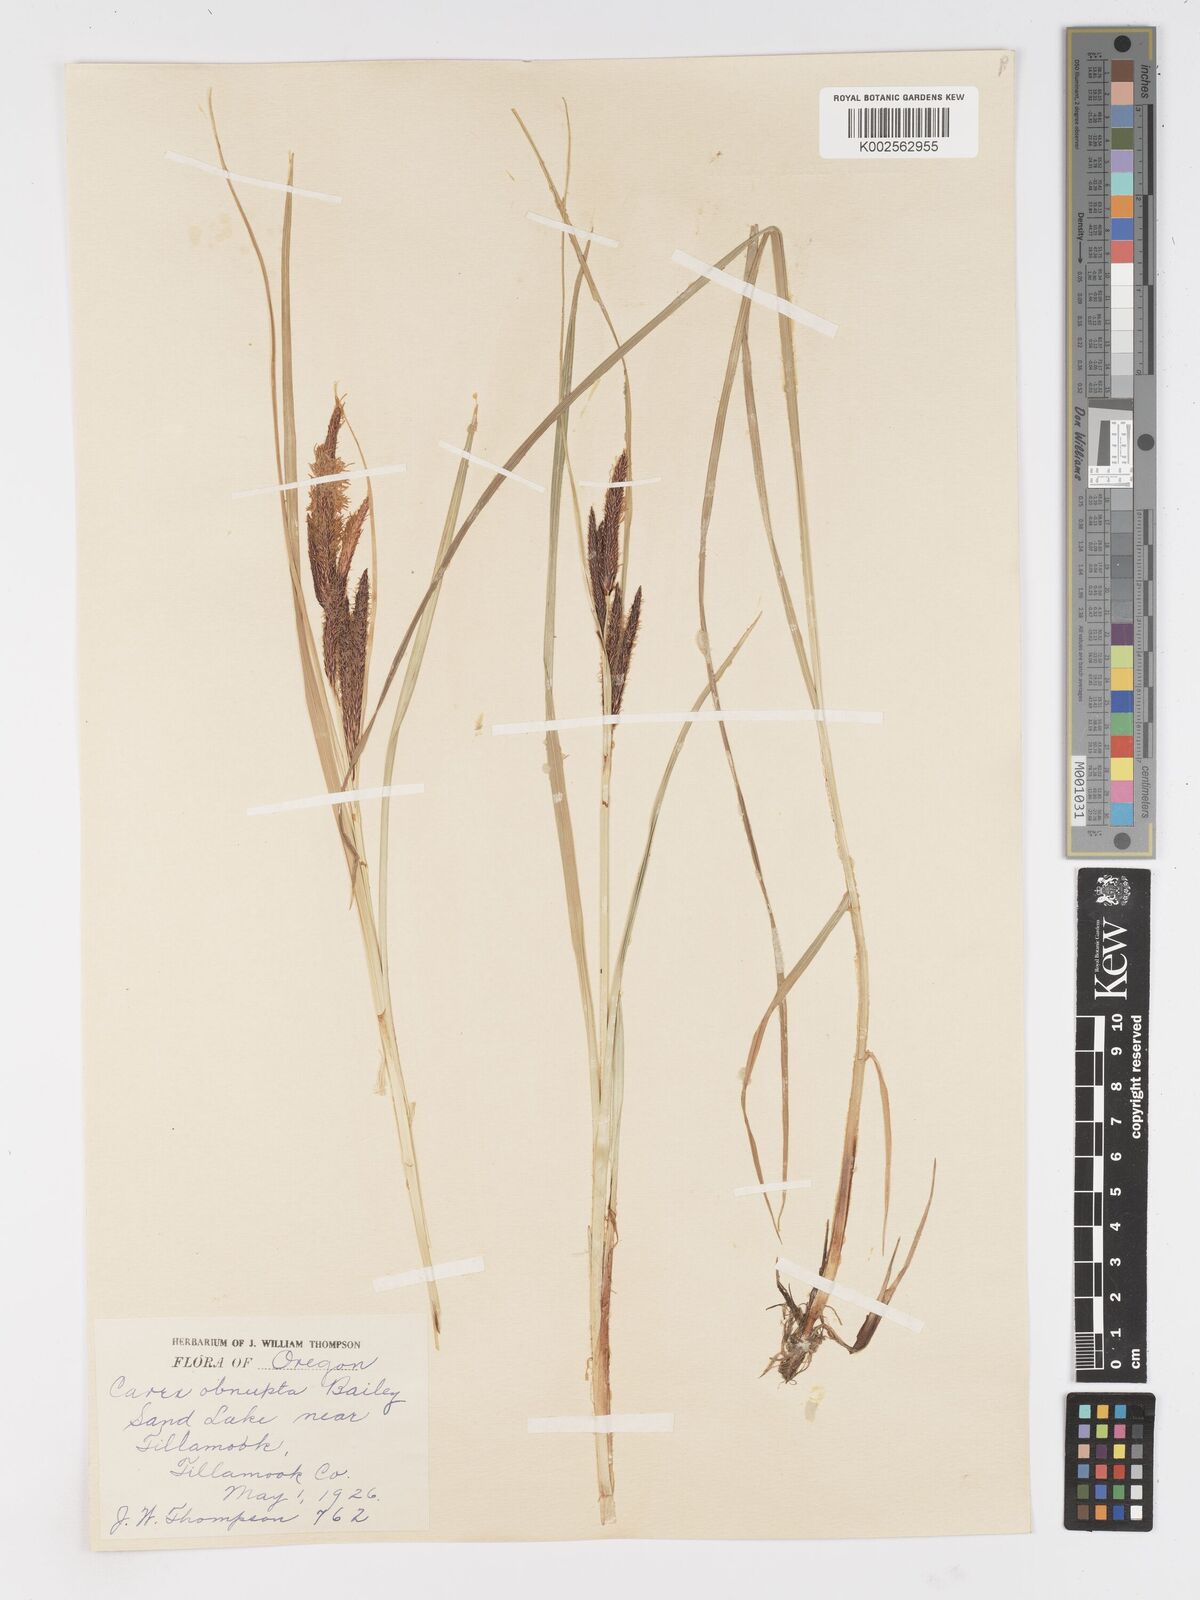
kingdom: Plantae
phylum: Tracheophyta
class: Liliopsida
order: Poales
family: Cyperaceae
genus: Carex
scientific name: Carex obnupta
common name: Slough sedge
